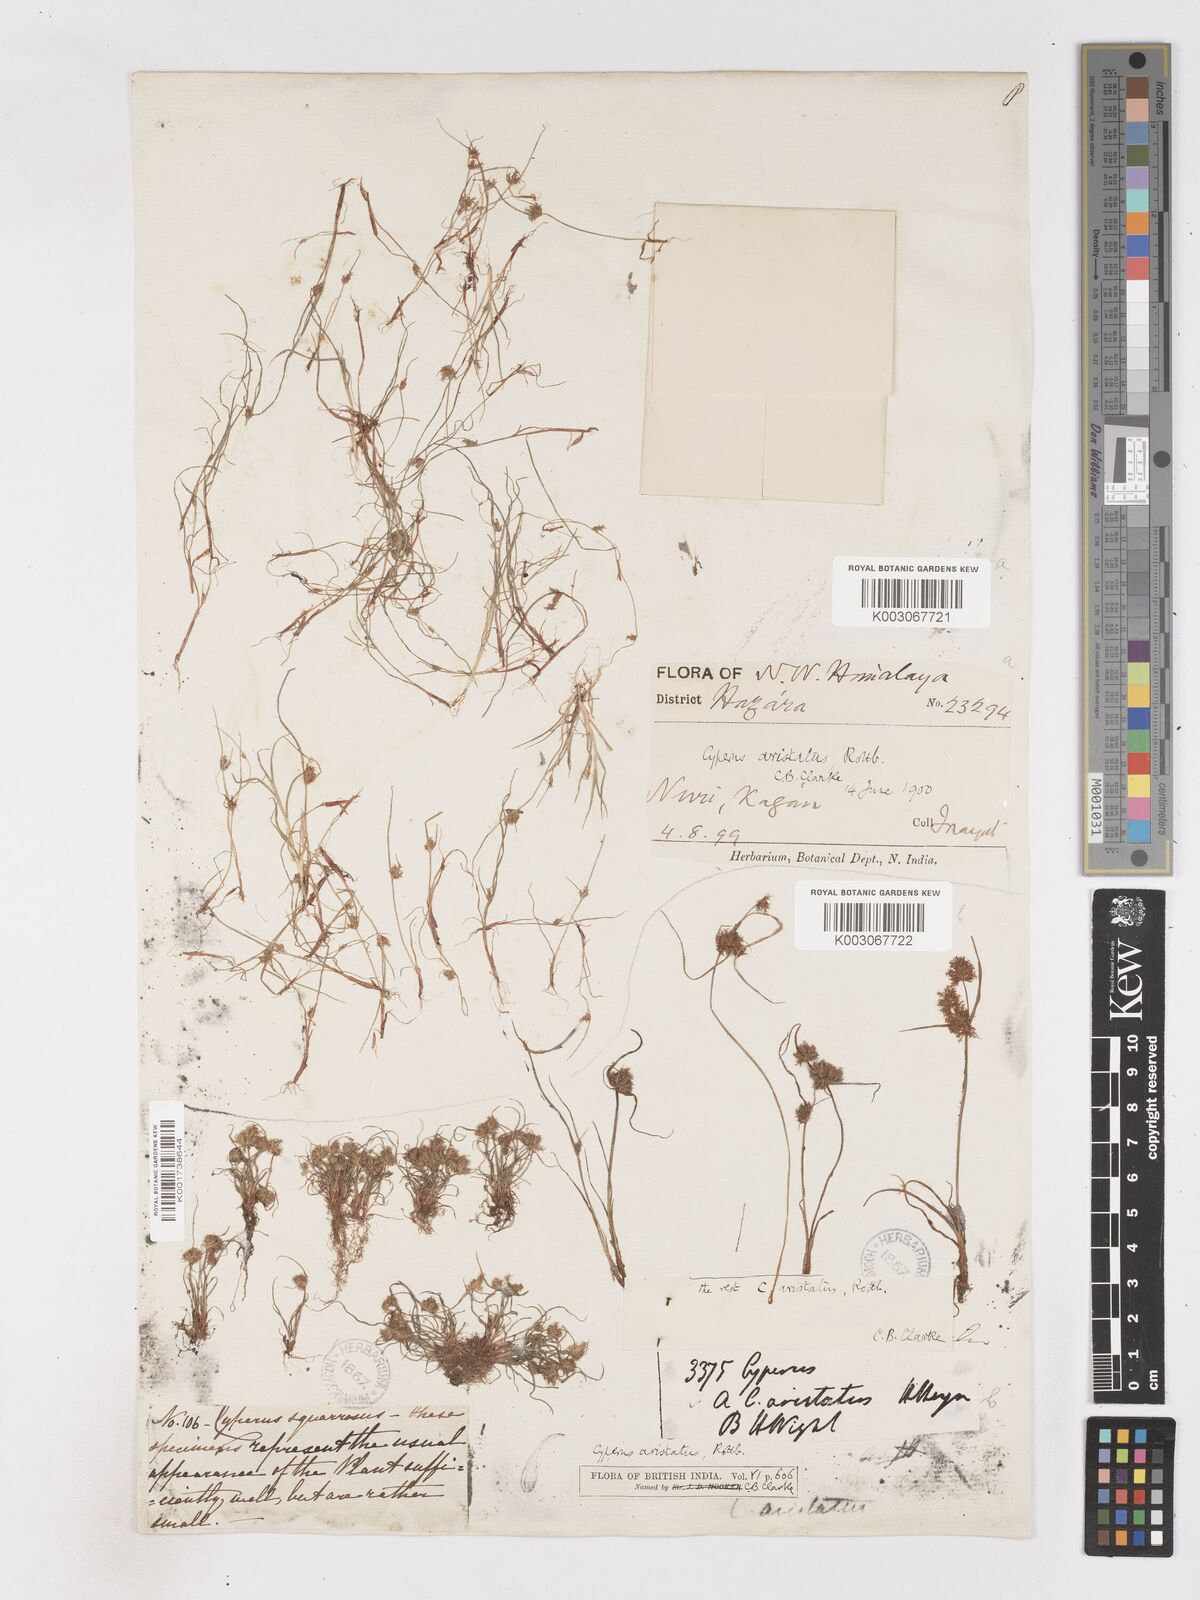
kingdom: Plantae
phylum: Tracheophyta
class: Liliopsida
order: Poales
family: Cyperaceae
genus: Cyperus
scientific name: Cyperus squarrosus
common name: Awned cyperus
